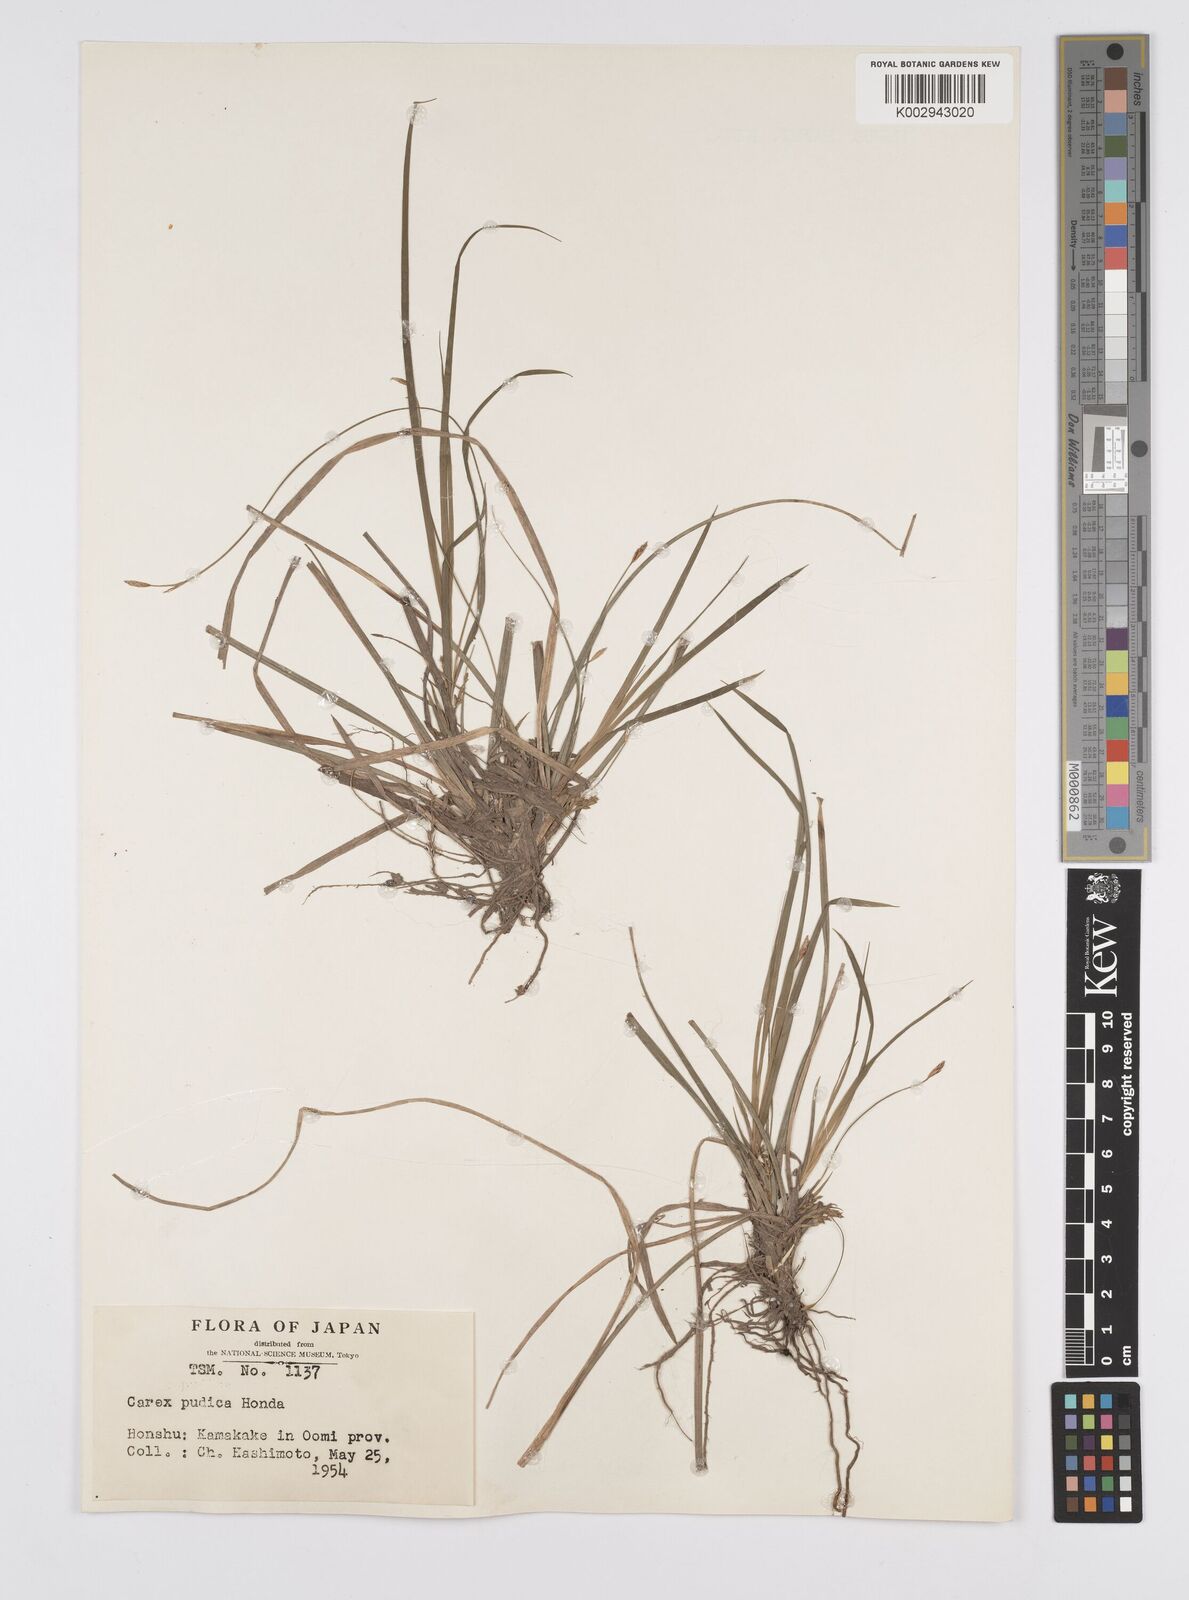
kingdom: Plantae
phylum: Tracheophyta
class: Liliopsida
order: Poales
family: Cyperaceae
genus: Carex
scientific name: Carex pudica
